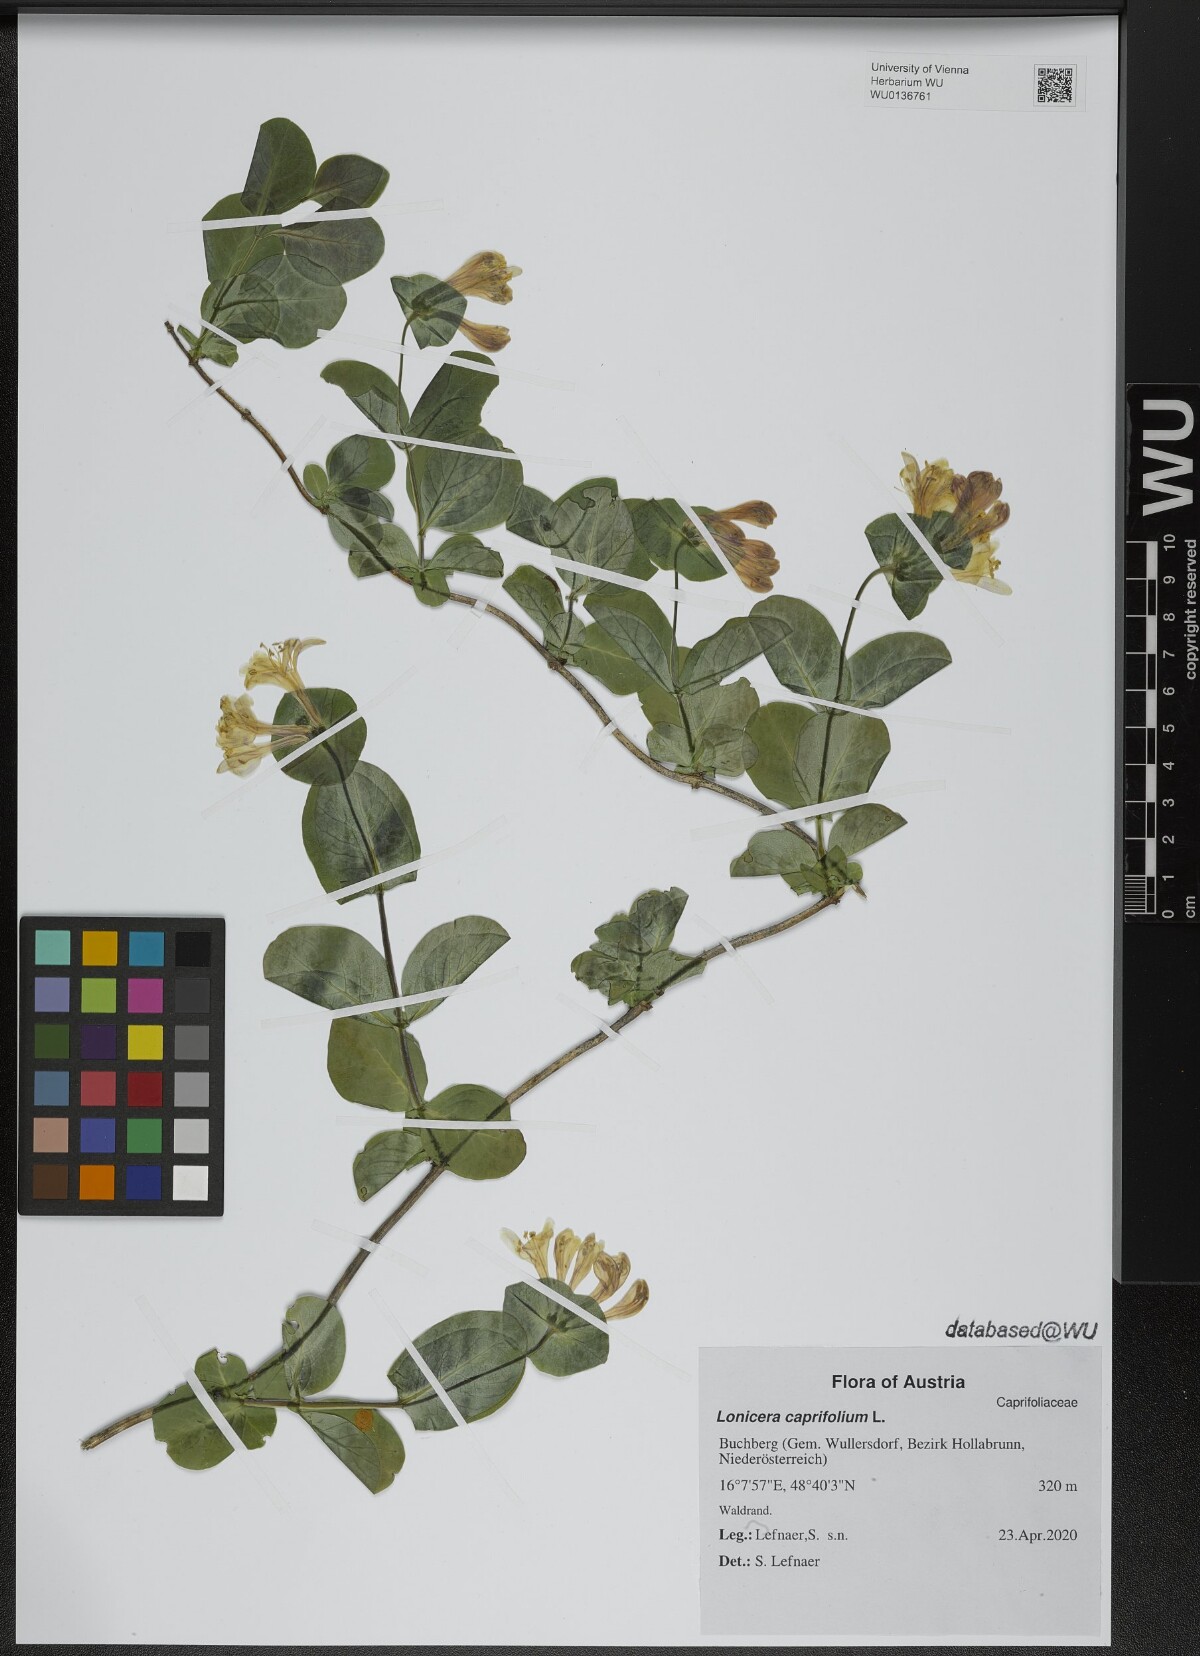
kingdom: Plantae
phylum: Tracheophyta
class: Magnoliopsida
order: Dipsacales
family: Caprifoliaceae
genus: Lonicera
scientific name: Lonicera caprifolium
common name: Perfoliate honeysuckle
